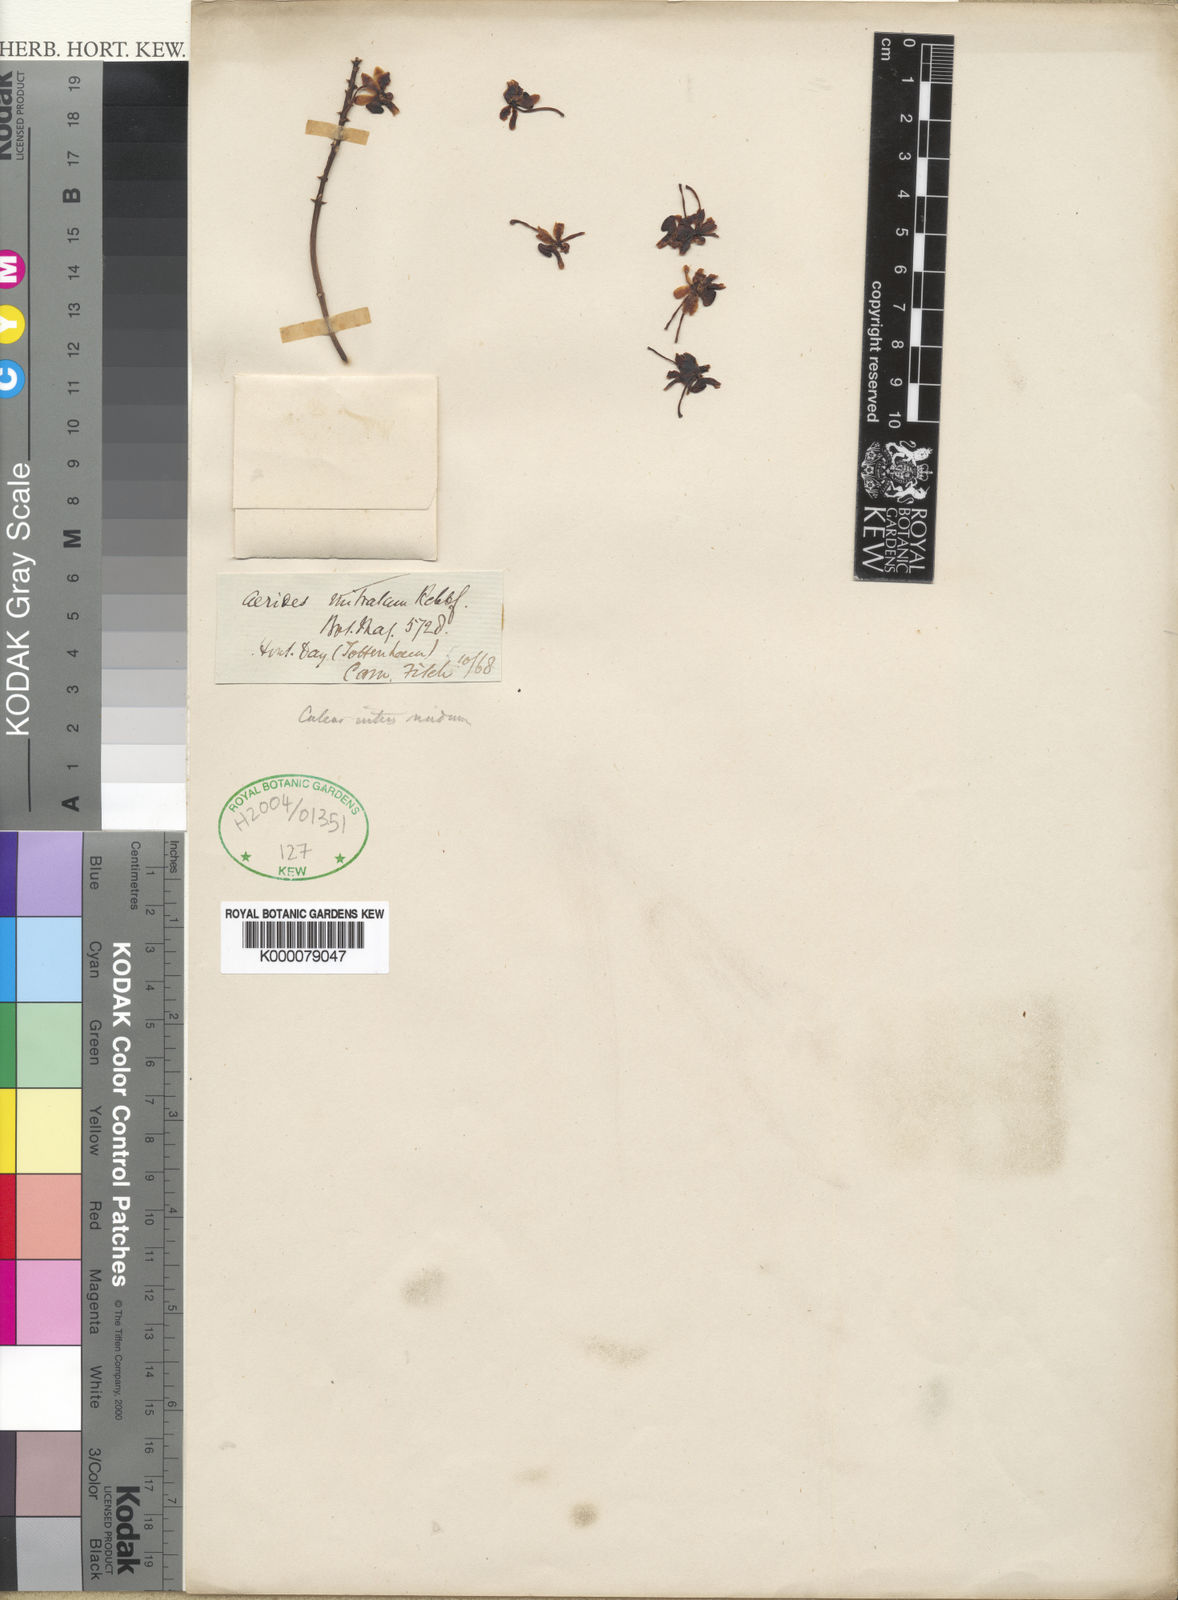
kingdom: Plantae
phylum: Tracheophyta
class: Liliopsida
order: Asparagales
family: Orchidaceae
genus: Seidenfadenia
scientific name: Seidenfadenia mitrata
